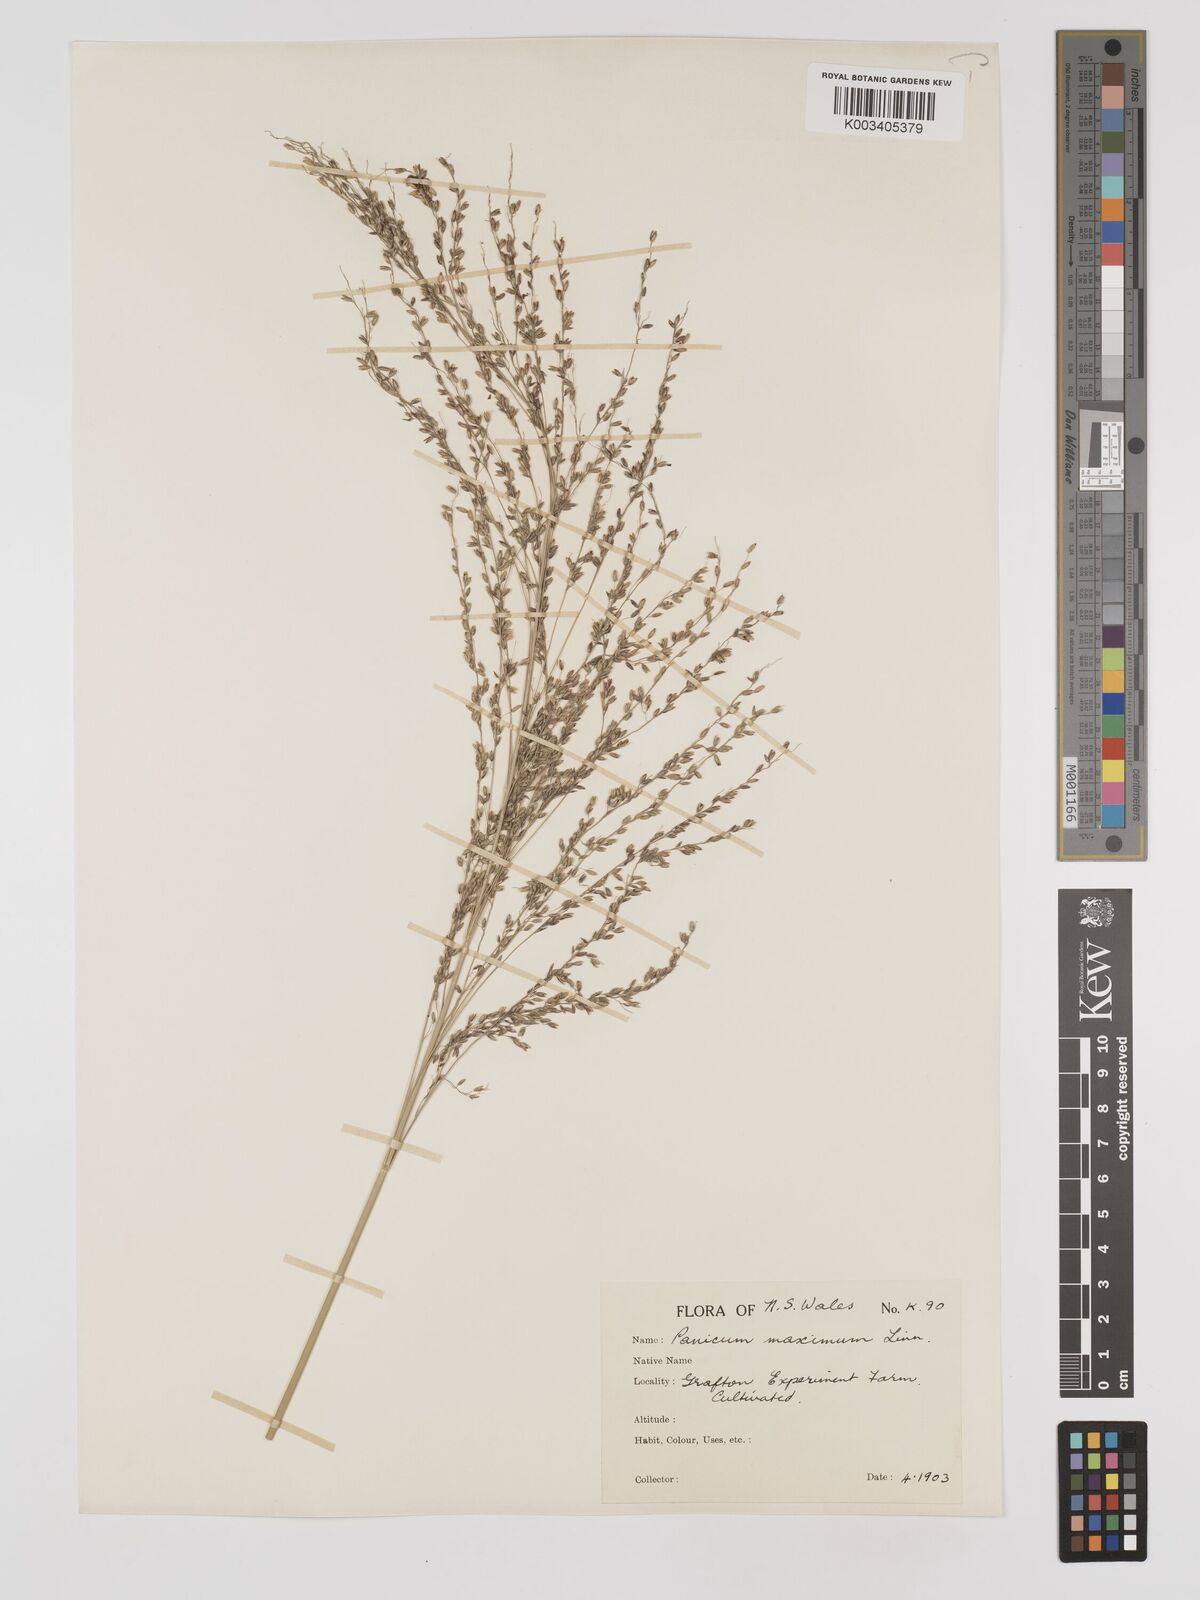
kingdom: Plantae
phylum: Tracheophyta
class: Liliopsida
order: Poales
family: Poaceae
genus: Megathyrsus
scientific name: Megathyrsus maximus
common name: Guineagrass
